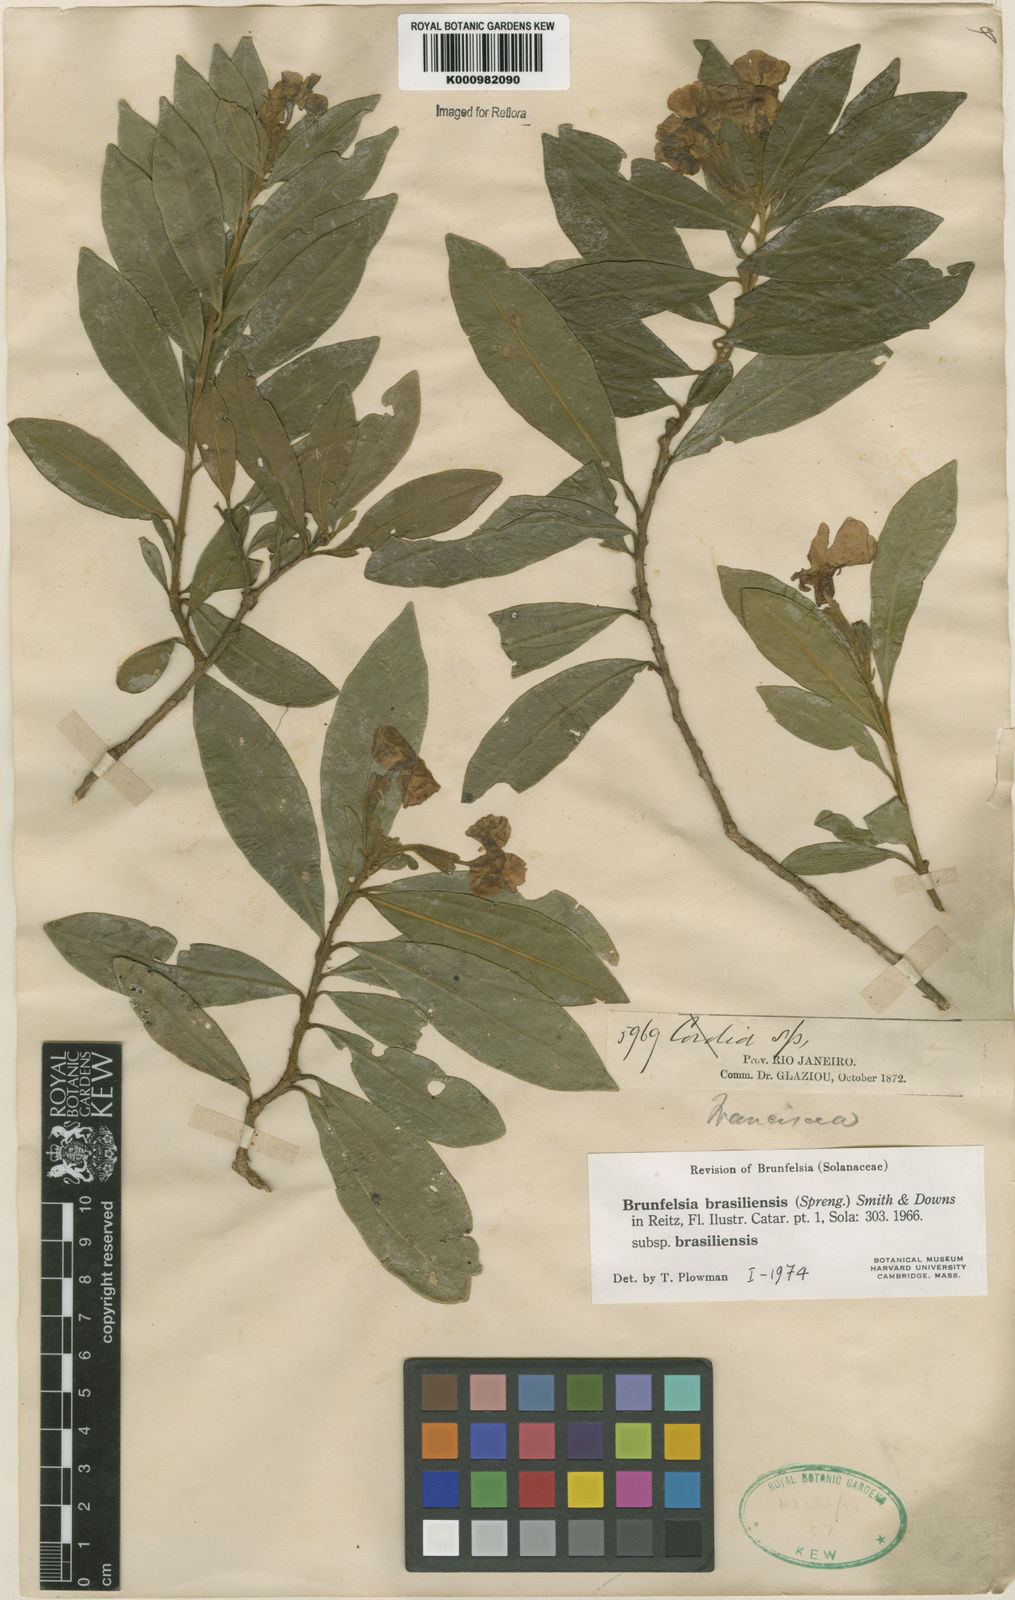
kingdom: Plantae
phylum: Tracheophyta
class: Magnoliopsida
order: Solanales
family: Solanaceae
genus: Brunfelsia
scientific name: Brunfelsia brasiliensis
